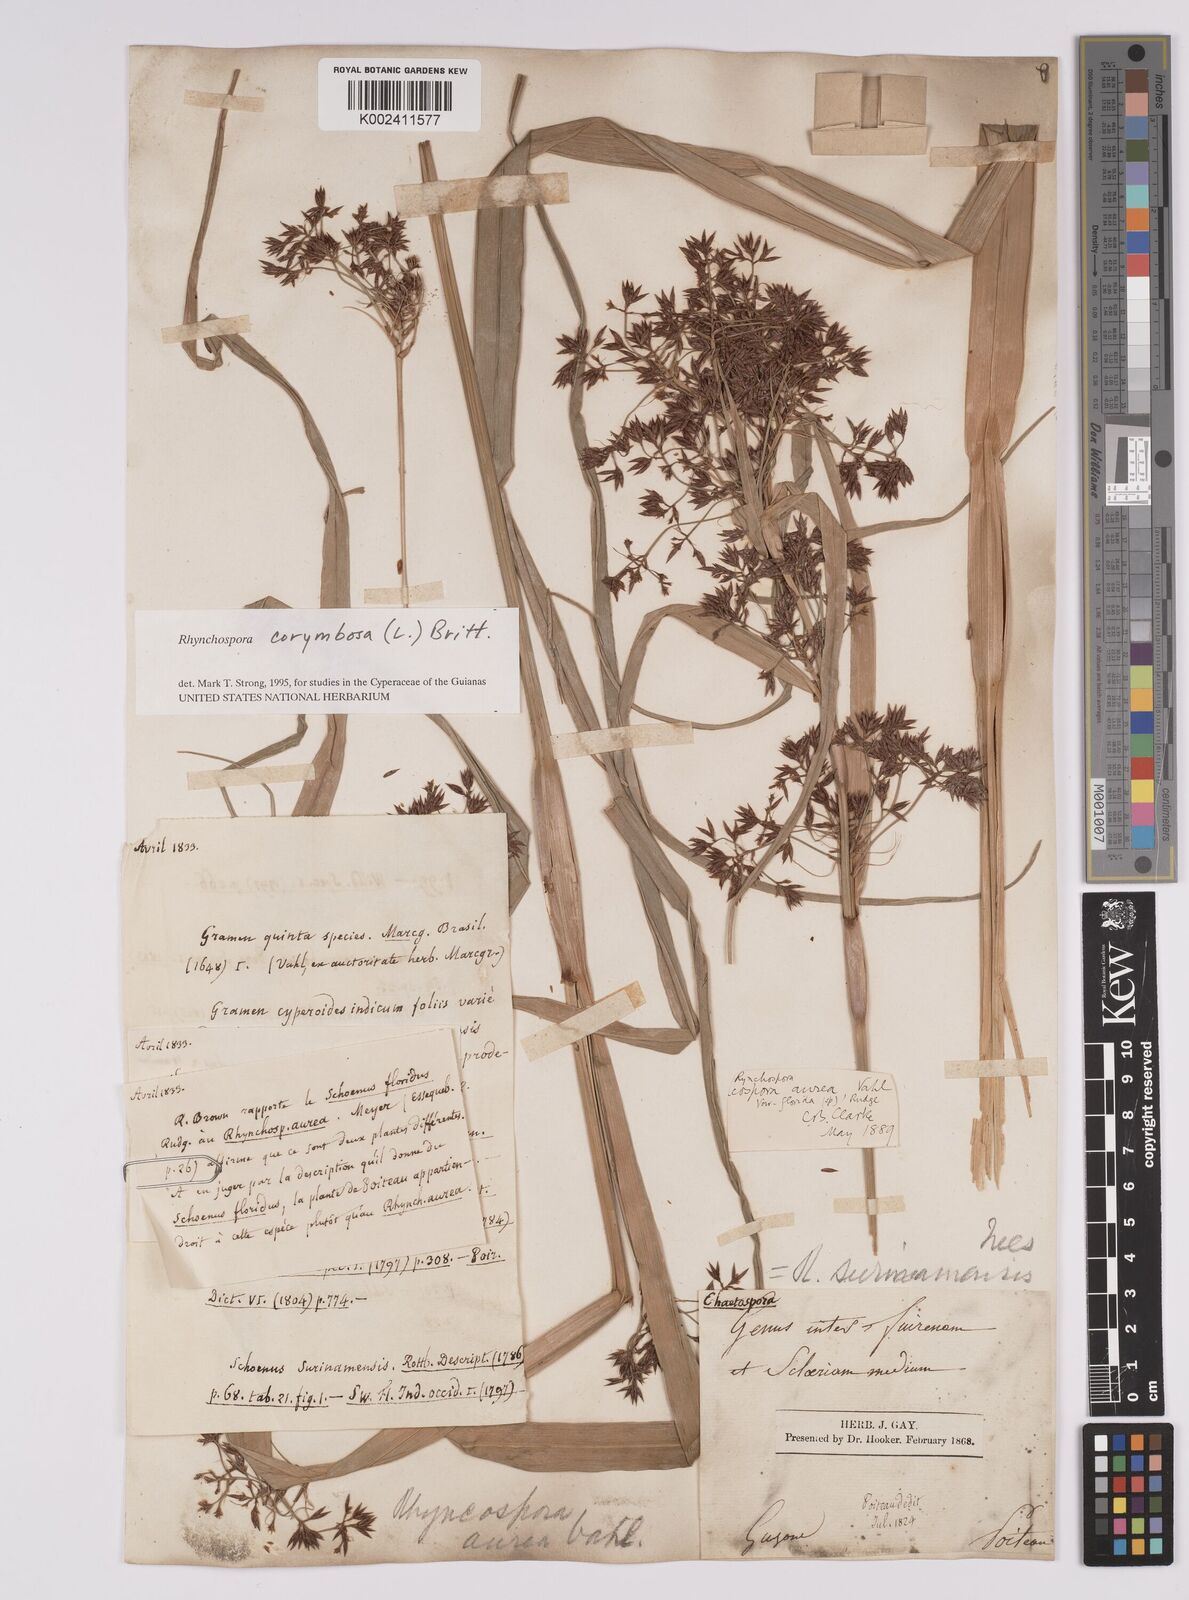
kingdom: Plantae
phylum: Tracheophyta
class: Liliopsida
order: Poales
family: Cyperaceae
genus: Rhynchospora
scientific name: Rhynchospora corymbosa
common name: Golden beak sedge
